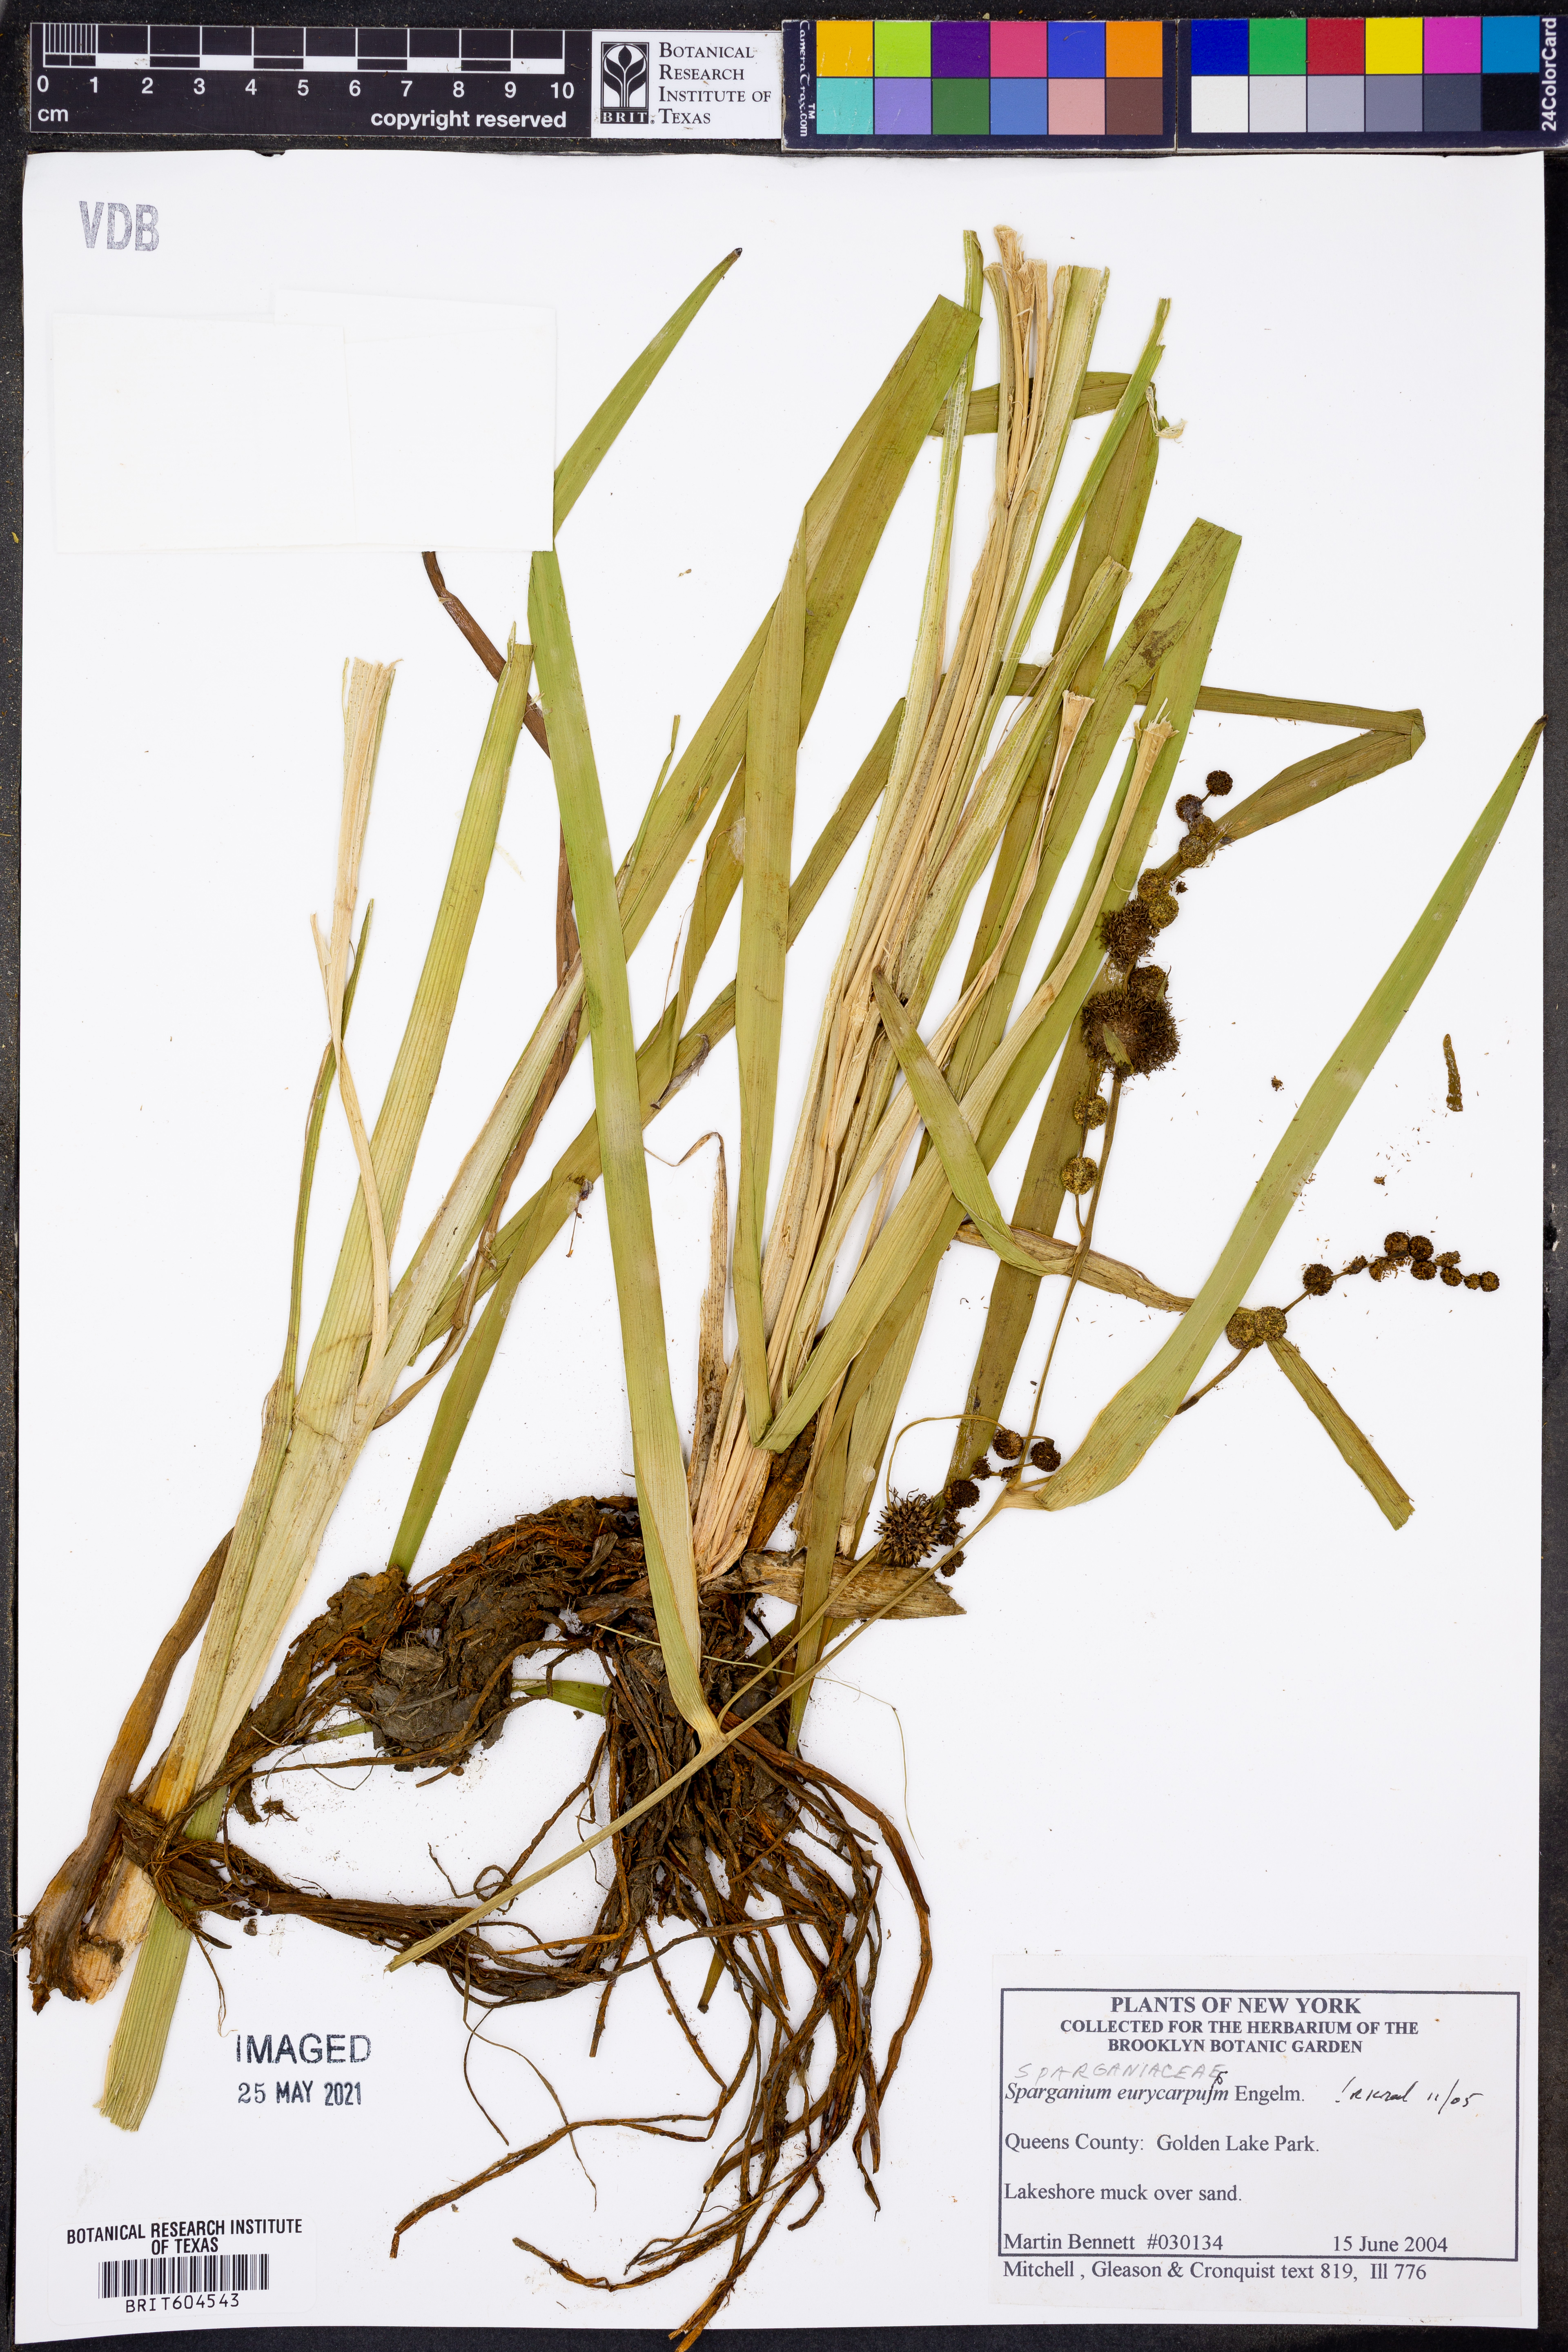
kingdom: Plantae
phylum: Tracheophyta
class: Liliopsida
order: Poales
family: Typhaceae
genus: Sparganium
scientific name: Sparganium eurycarpum
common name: Broad-fruited burreed
